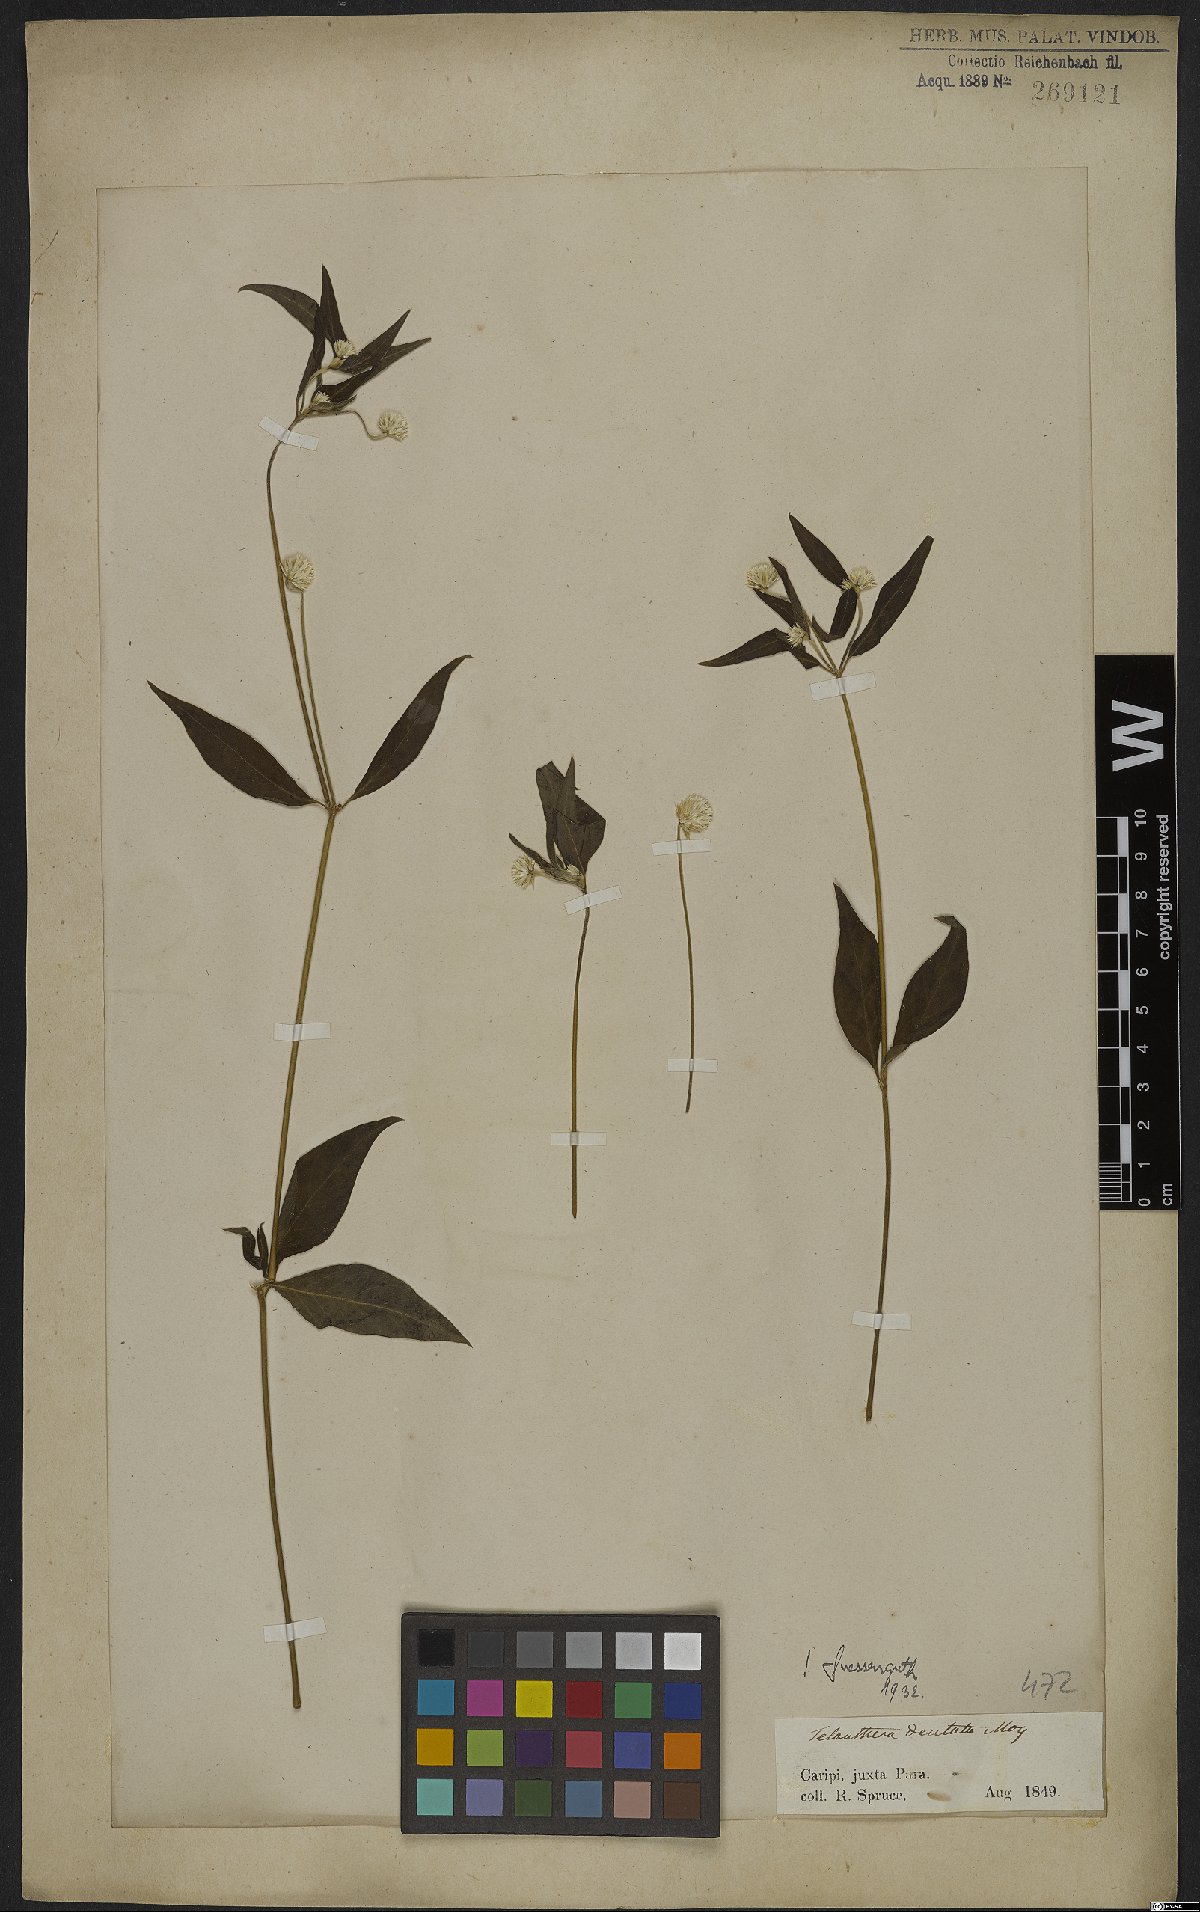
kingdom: Plantae
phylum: Tracheophyta
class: Magnoliopsida
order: Caryophyllales
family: Amaranthaceae
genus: Alternanthera
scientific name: Alternanthera ramosissima
